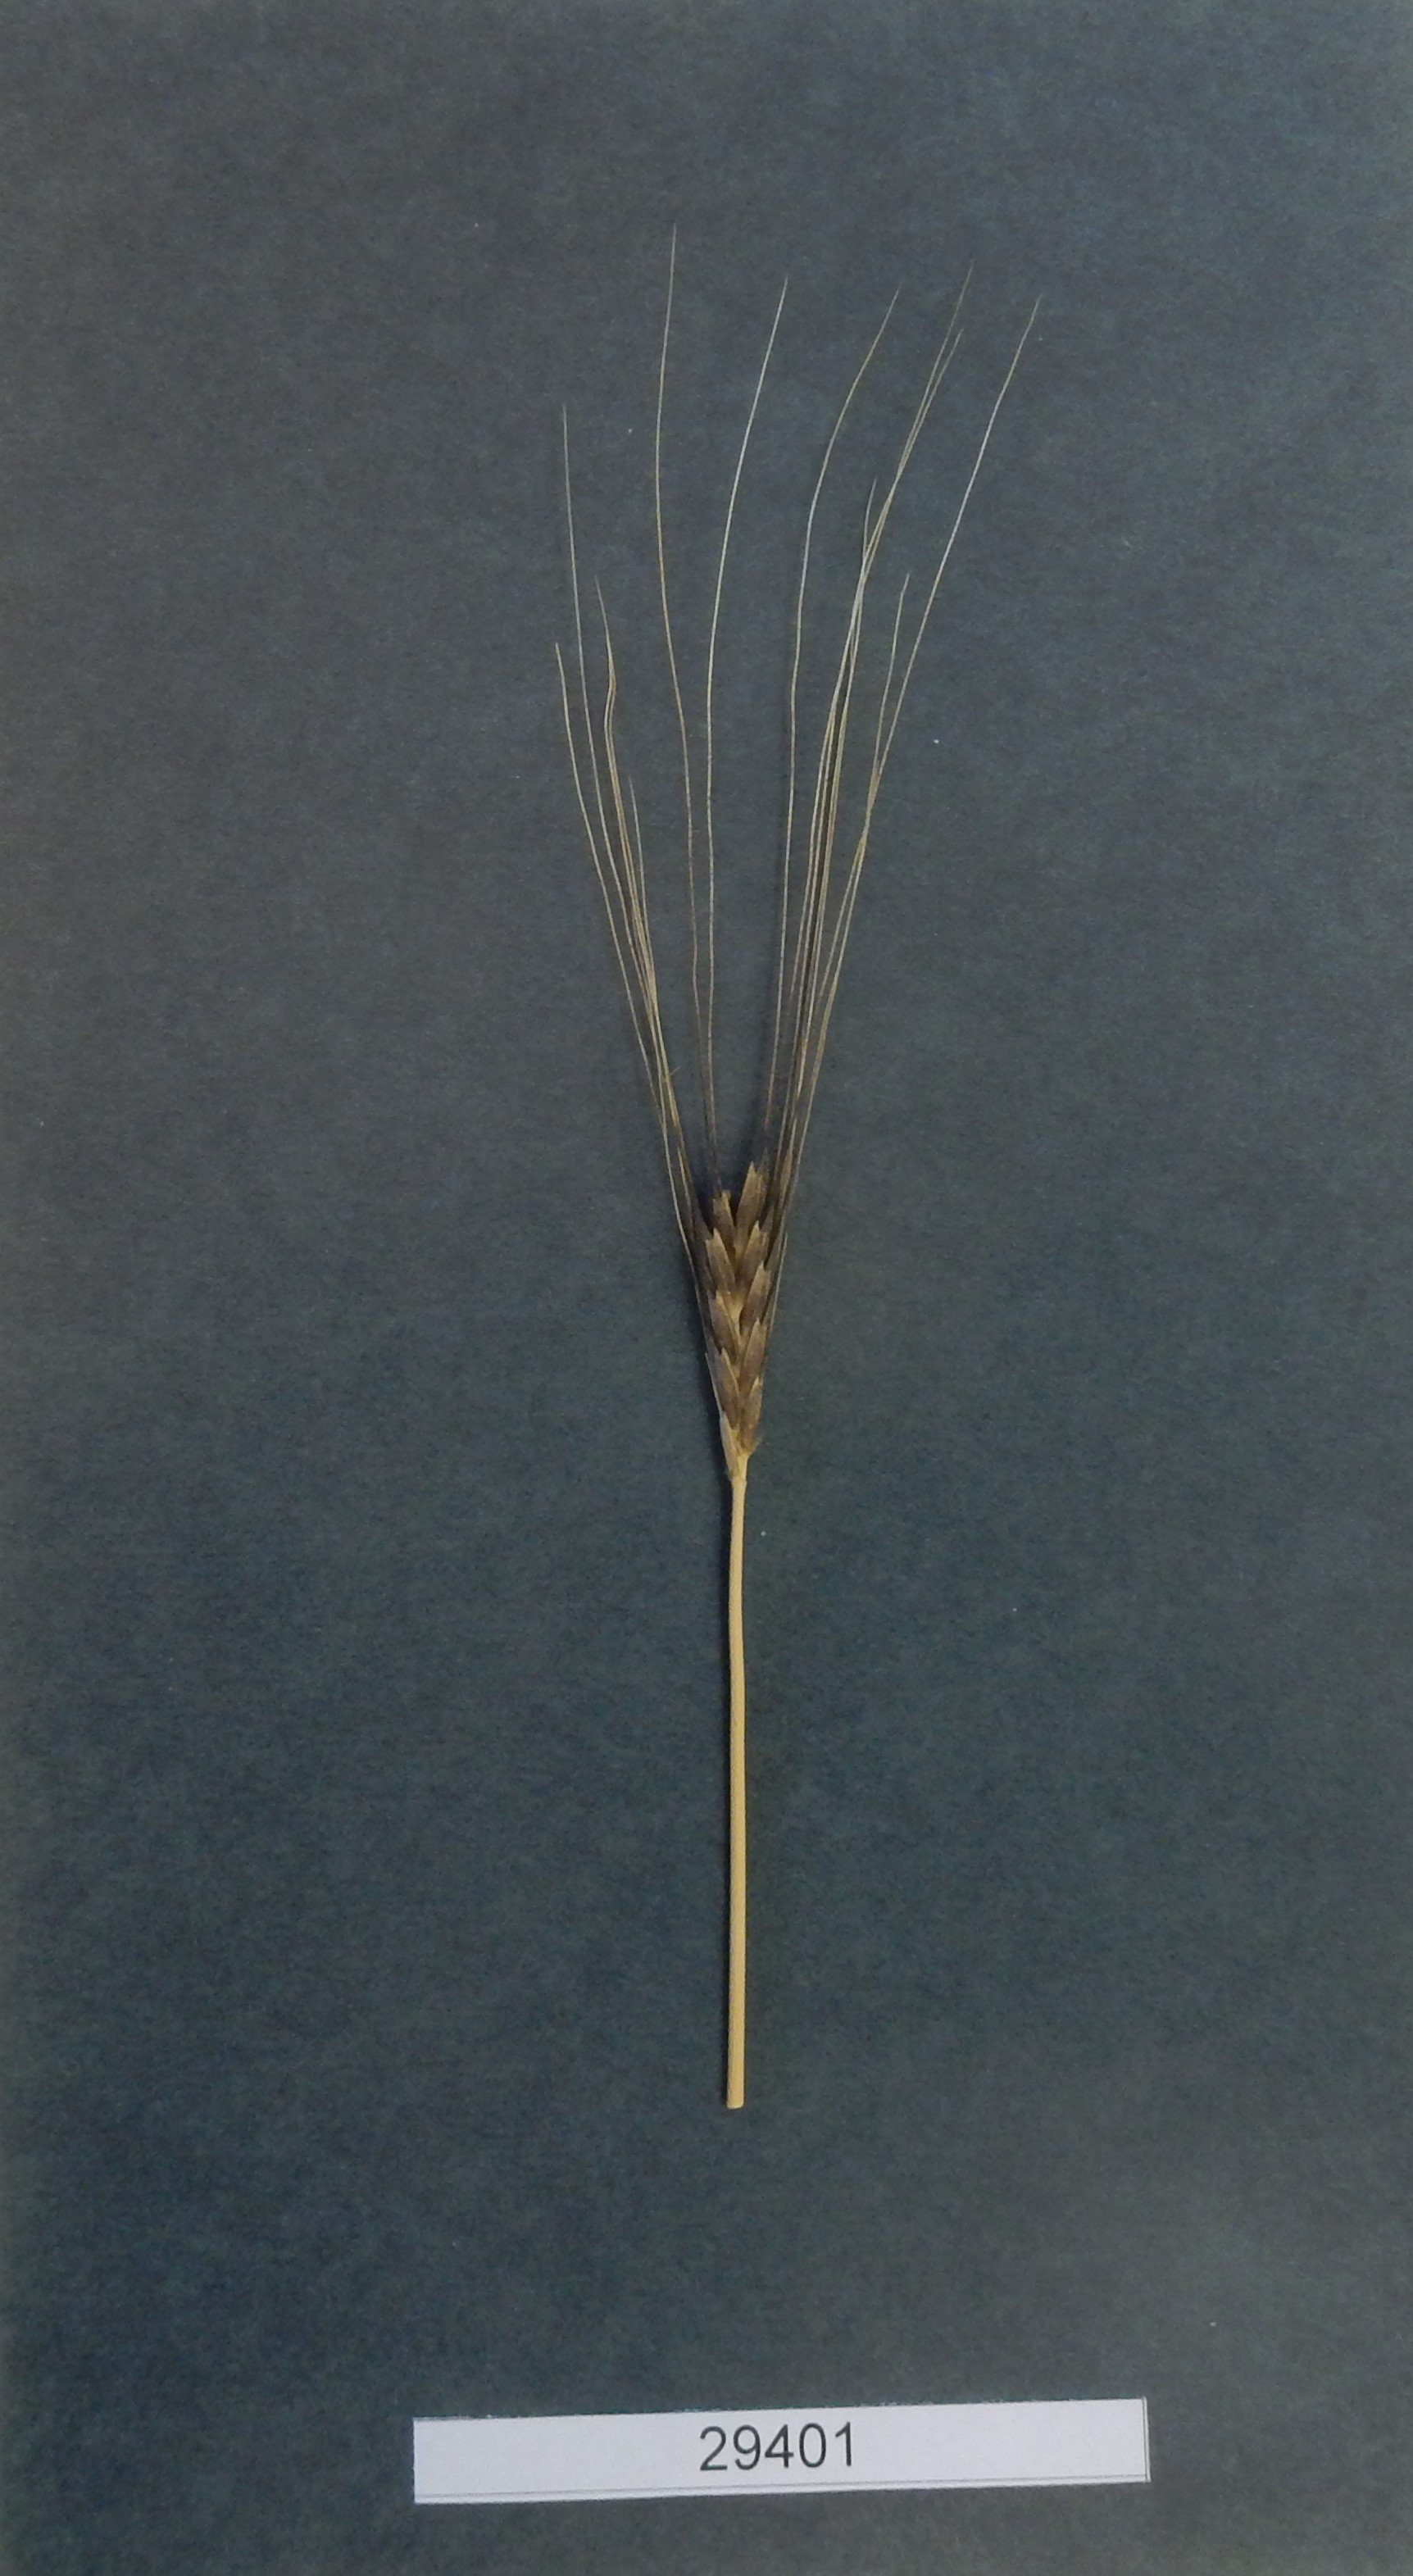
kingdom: Plantae
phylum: Tracheophyta
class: Liliopsida
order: Poales
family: Poaceae
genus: Triticum
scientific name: Triticum monococcum
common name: Wheat
